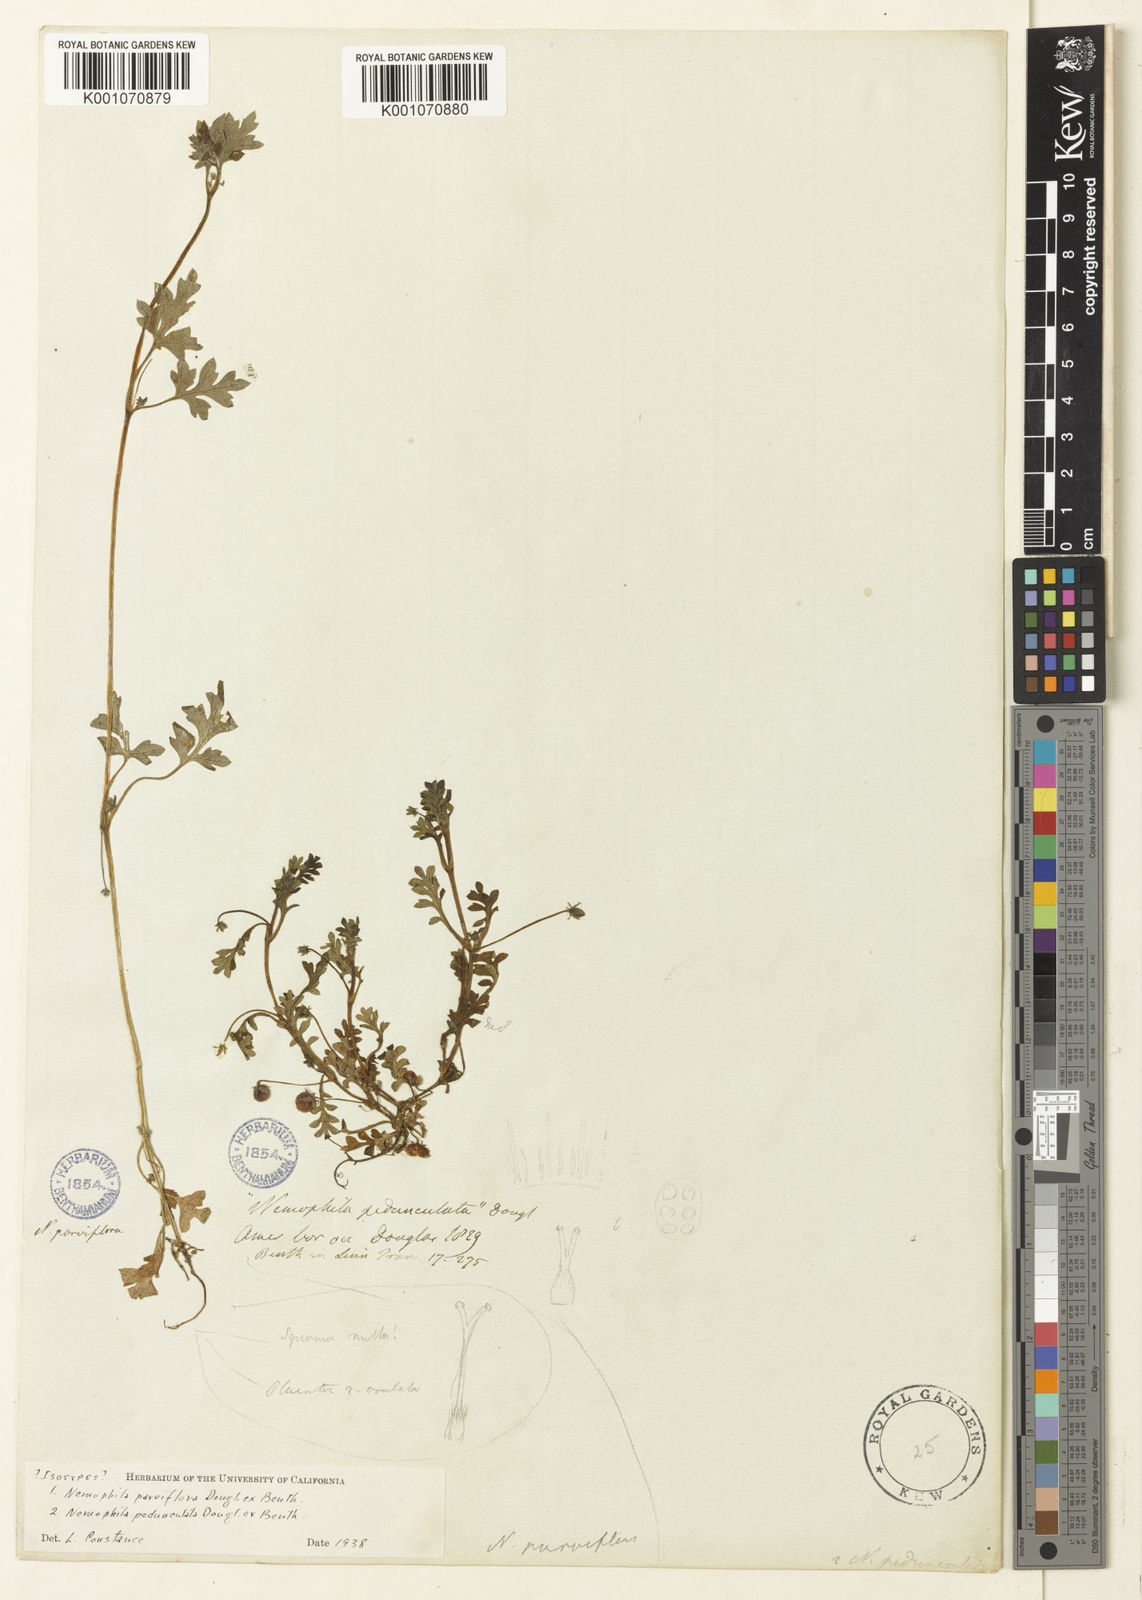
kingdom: Plantae
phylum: Tracheophyta
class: Magnoliopsida
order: Boraginales
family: Hydrophyllaceae
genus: Nemophila
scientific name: Nemophila parviflora
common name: Small-flowered baby-blue-eyes
